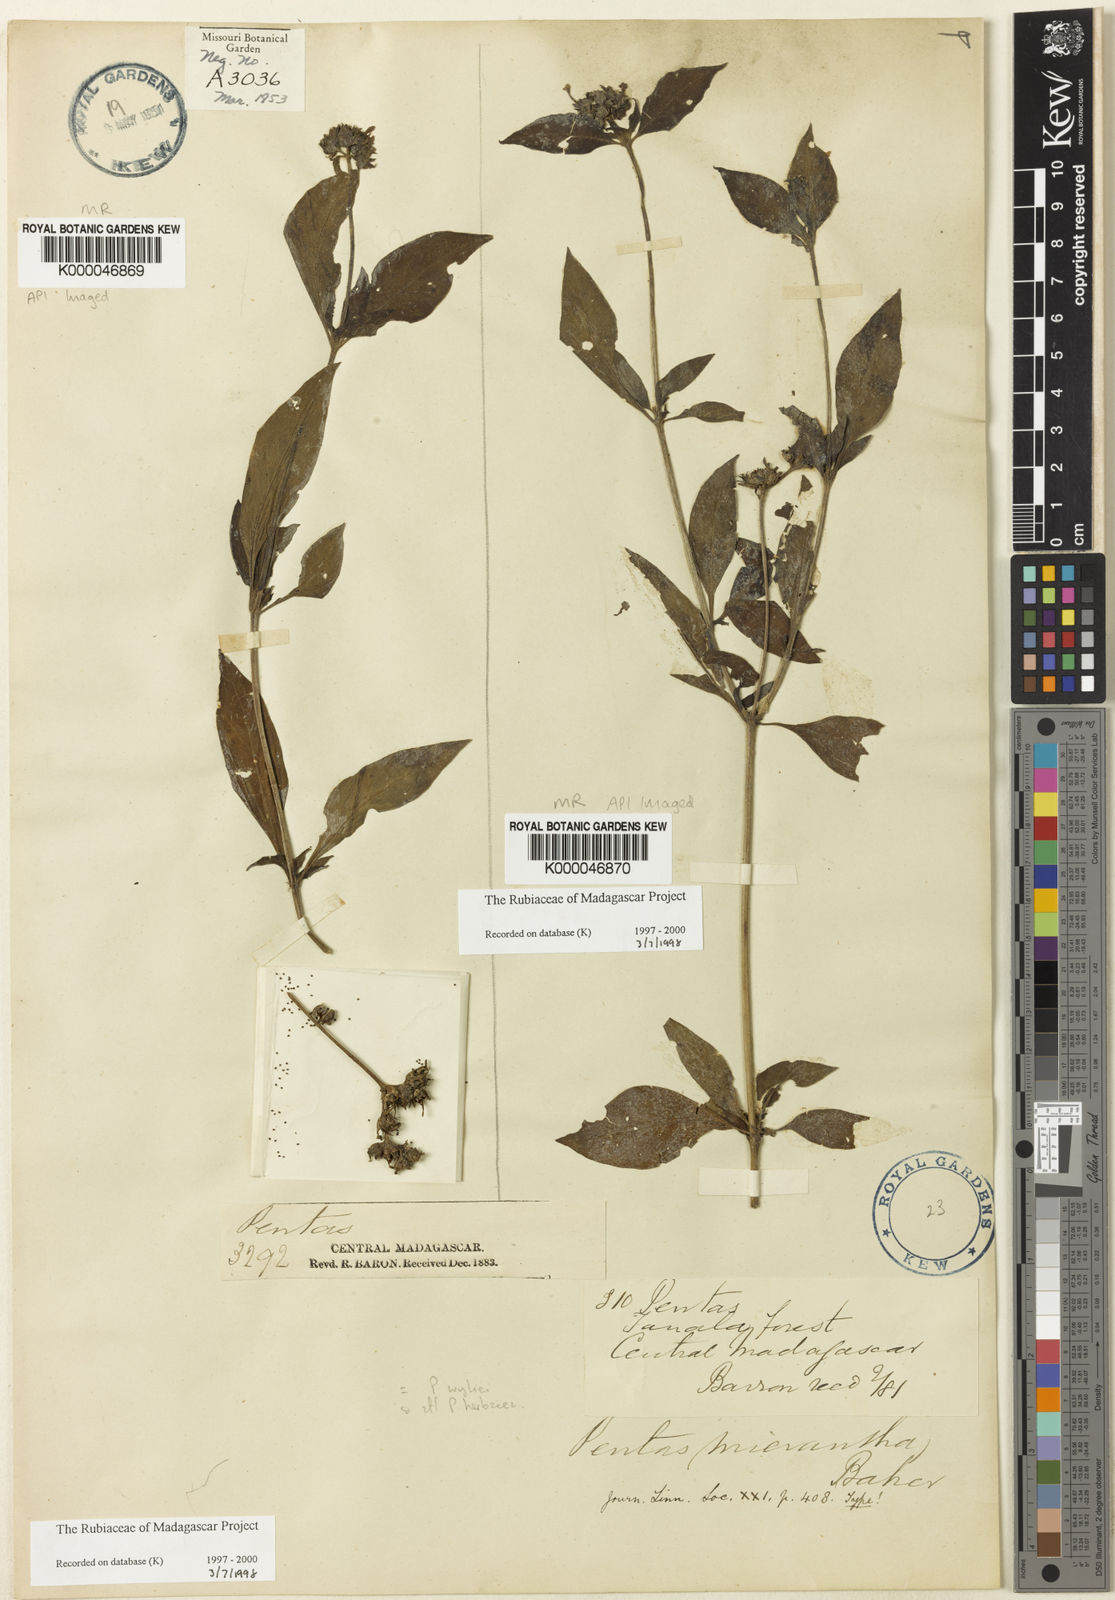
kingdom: Plantae
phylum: Tracheophyta
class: Magnoliopsida
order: Gentianales
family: Rubiaceae
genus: Pentas
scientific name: Pentas micrantha
